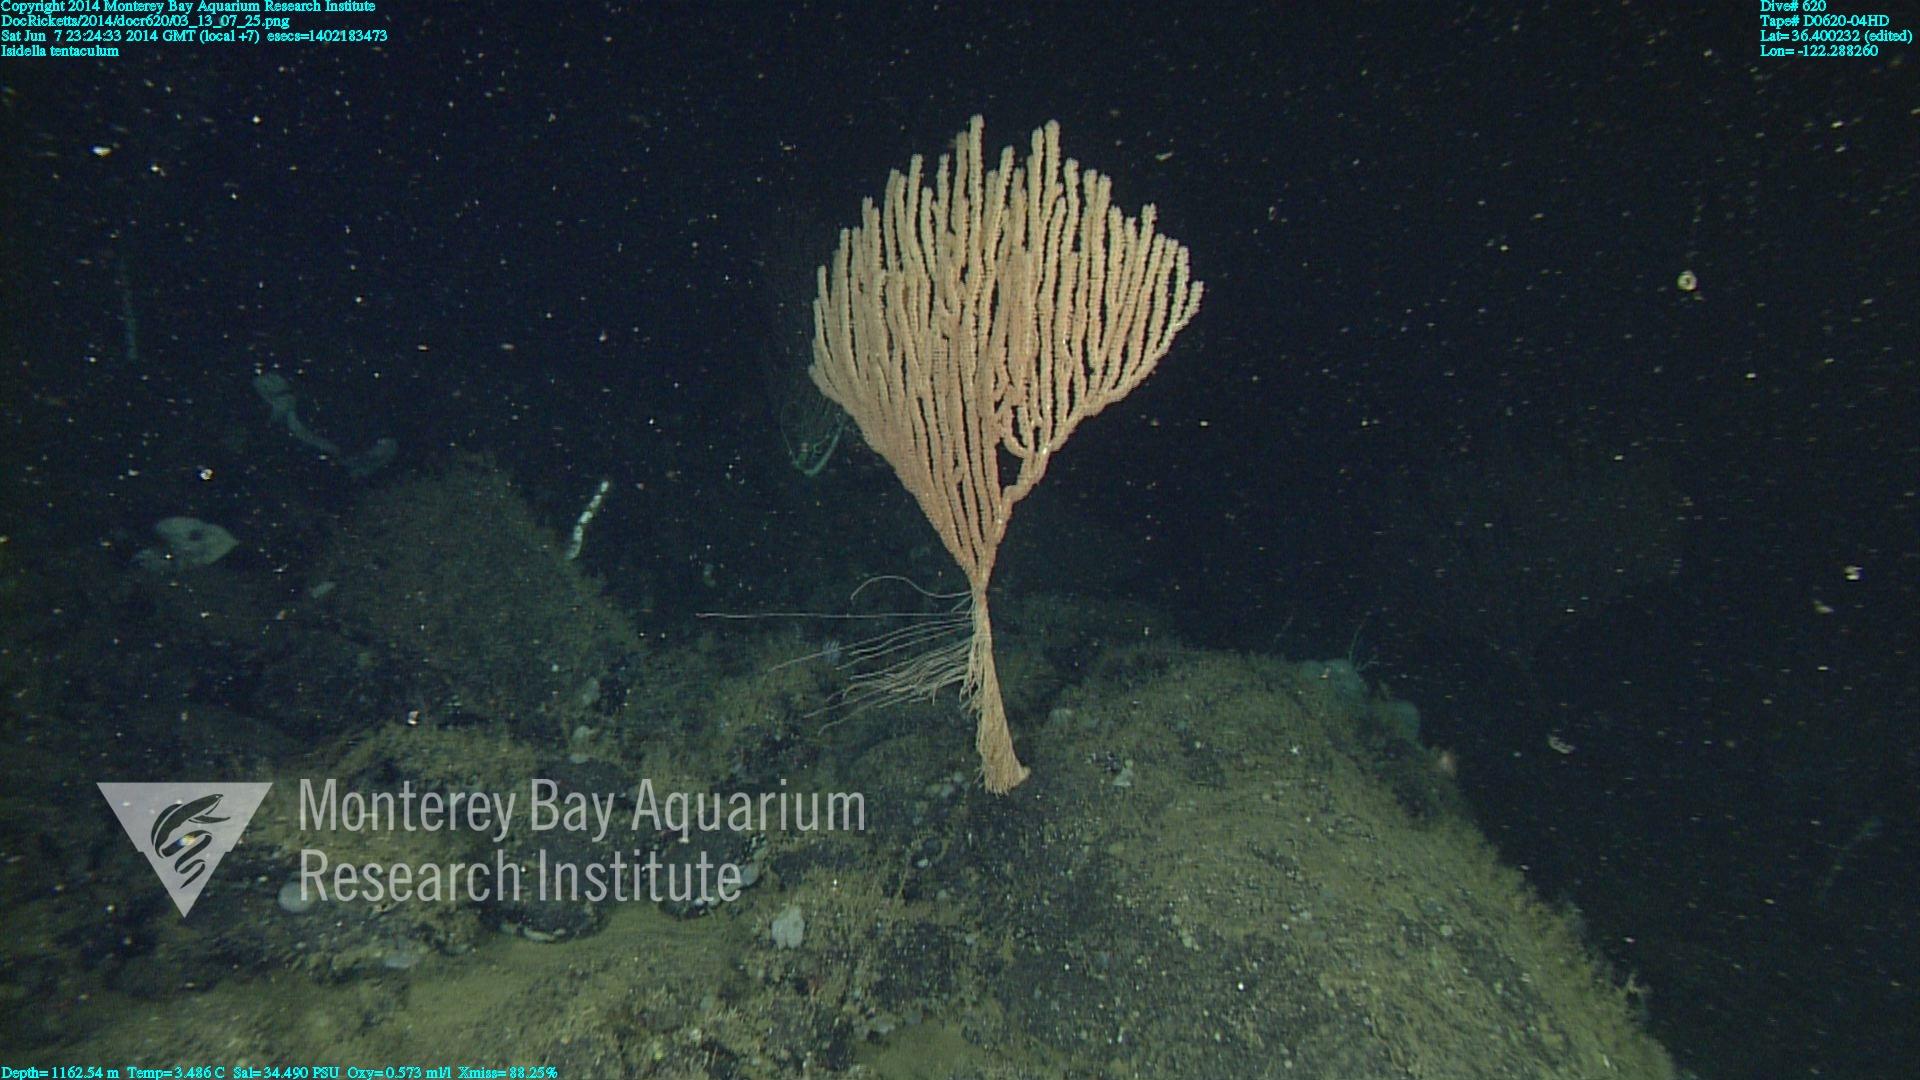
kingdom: Animalia
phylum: Cnidaria
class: Anthozoa
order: Scleralcyonacea
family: Keratoisididae
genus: Isidella
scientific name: Isidella tentaculum
